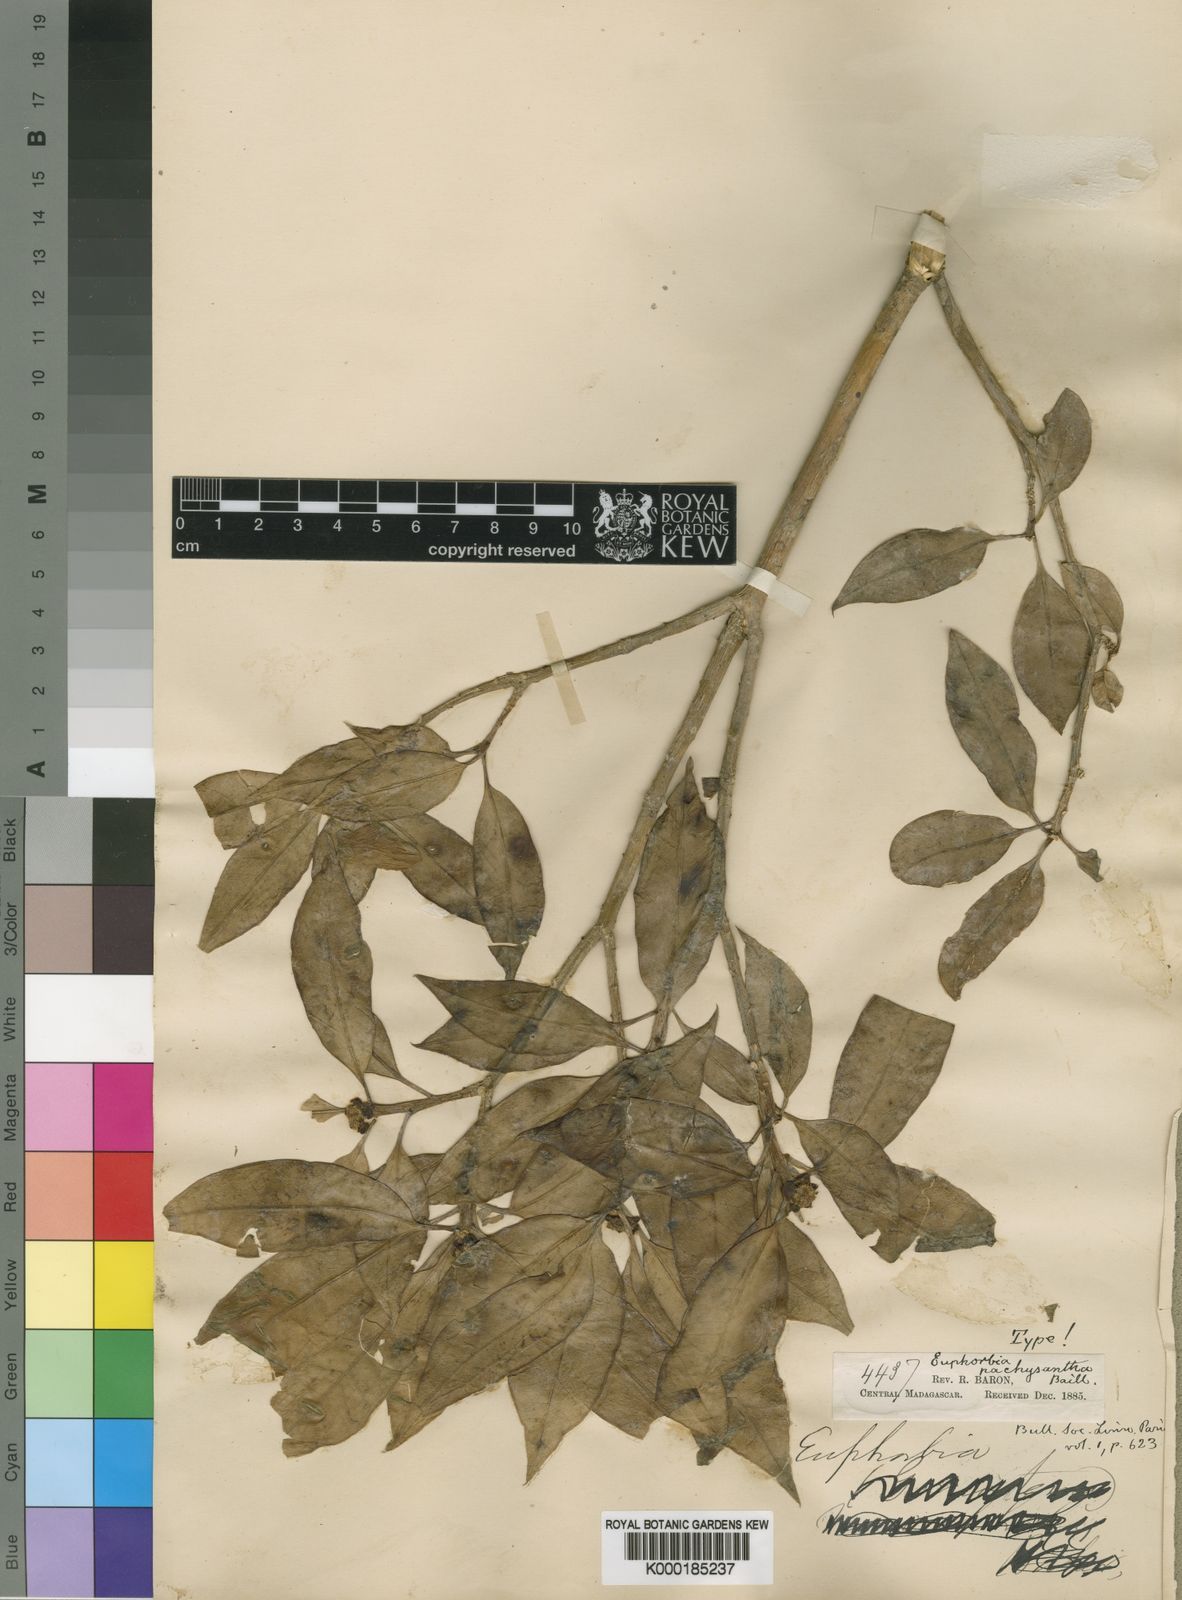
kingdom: Plantae
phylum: Tracheophyta
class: Magnoliopsida
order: Malpighiales
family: Euphorbiaceae
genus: Euphorbia
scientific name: Euphorbia pachysantha
